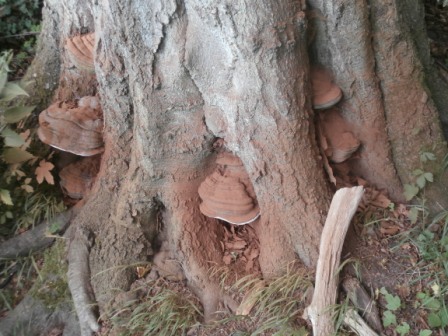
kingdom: Fungi
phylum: Basidiomycota
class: Agaricomycetes
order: Polyporales
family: Polyporaceae
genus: Ganoderma
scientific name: Ganoderma pfeifferi
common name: kobberrød lakporesvamp
